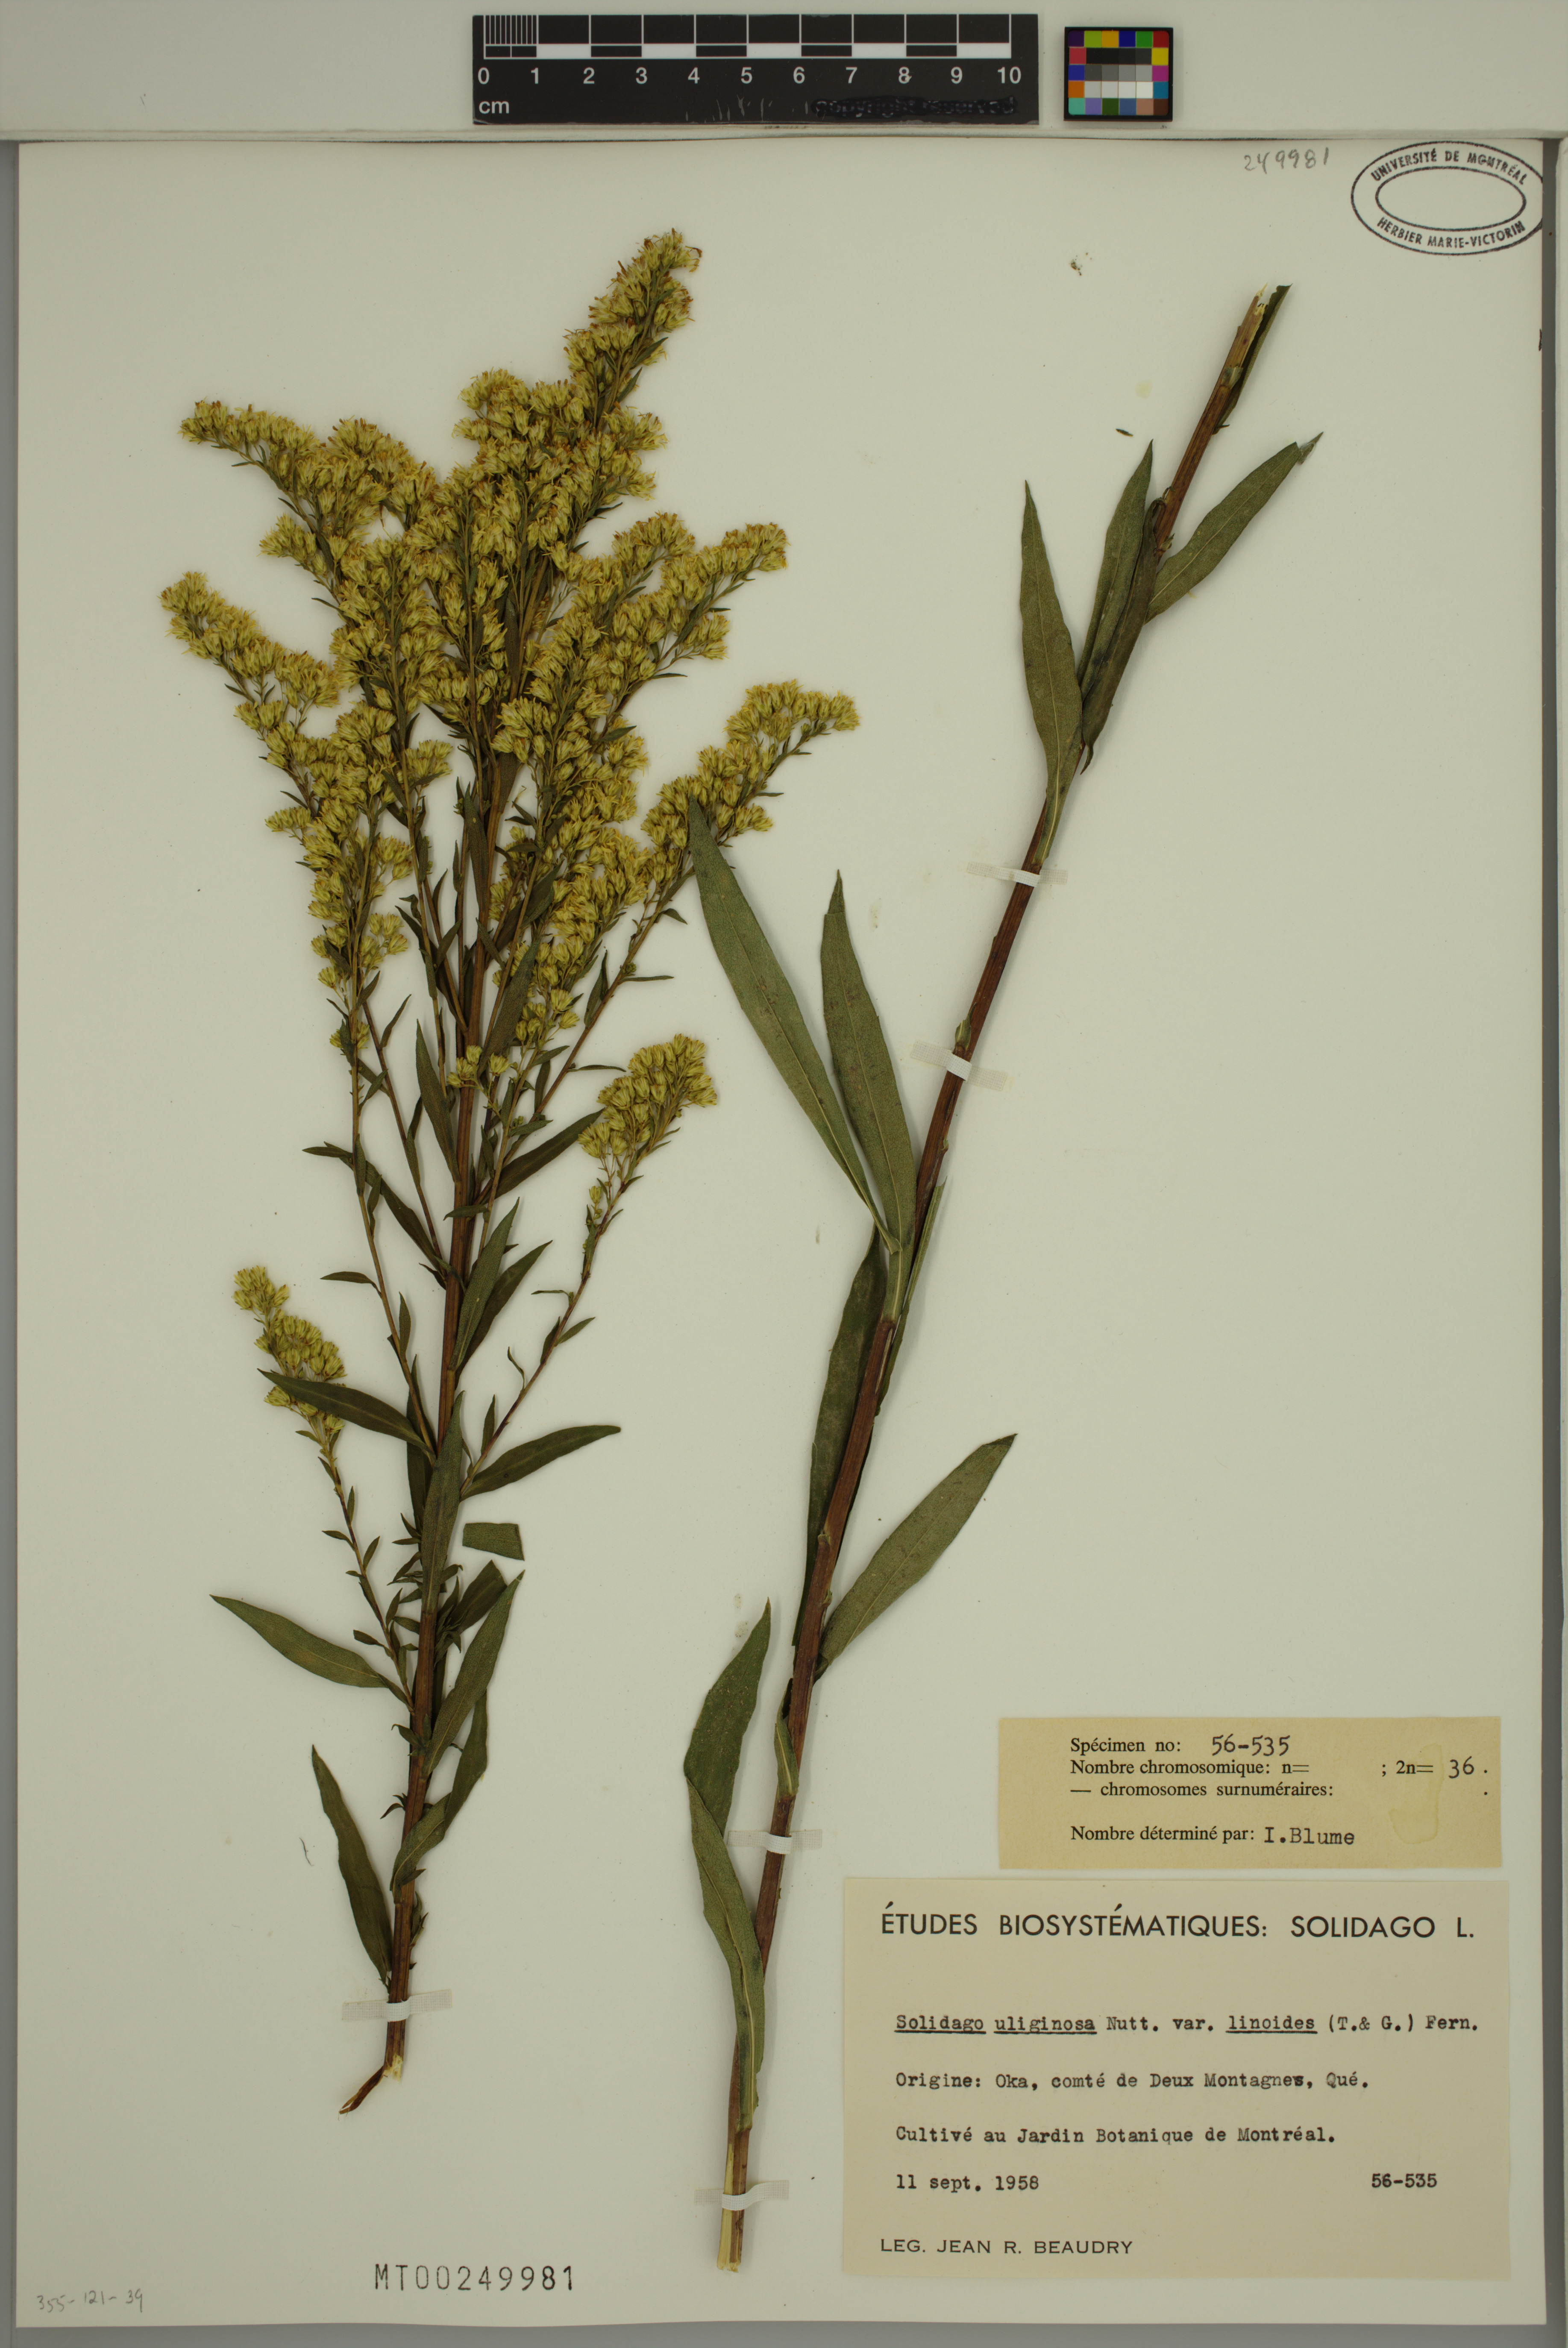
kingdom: Plantae
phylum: Tracheophyta
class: Magnoliopsida
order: Asterales
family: Asteraceae
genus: Solidago
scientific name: Solidago uliginosa
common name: Bog goldenrod
